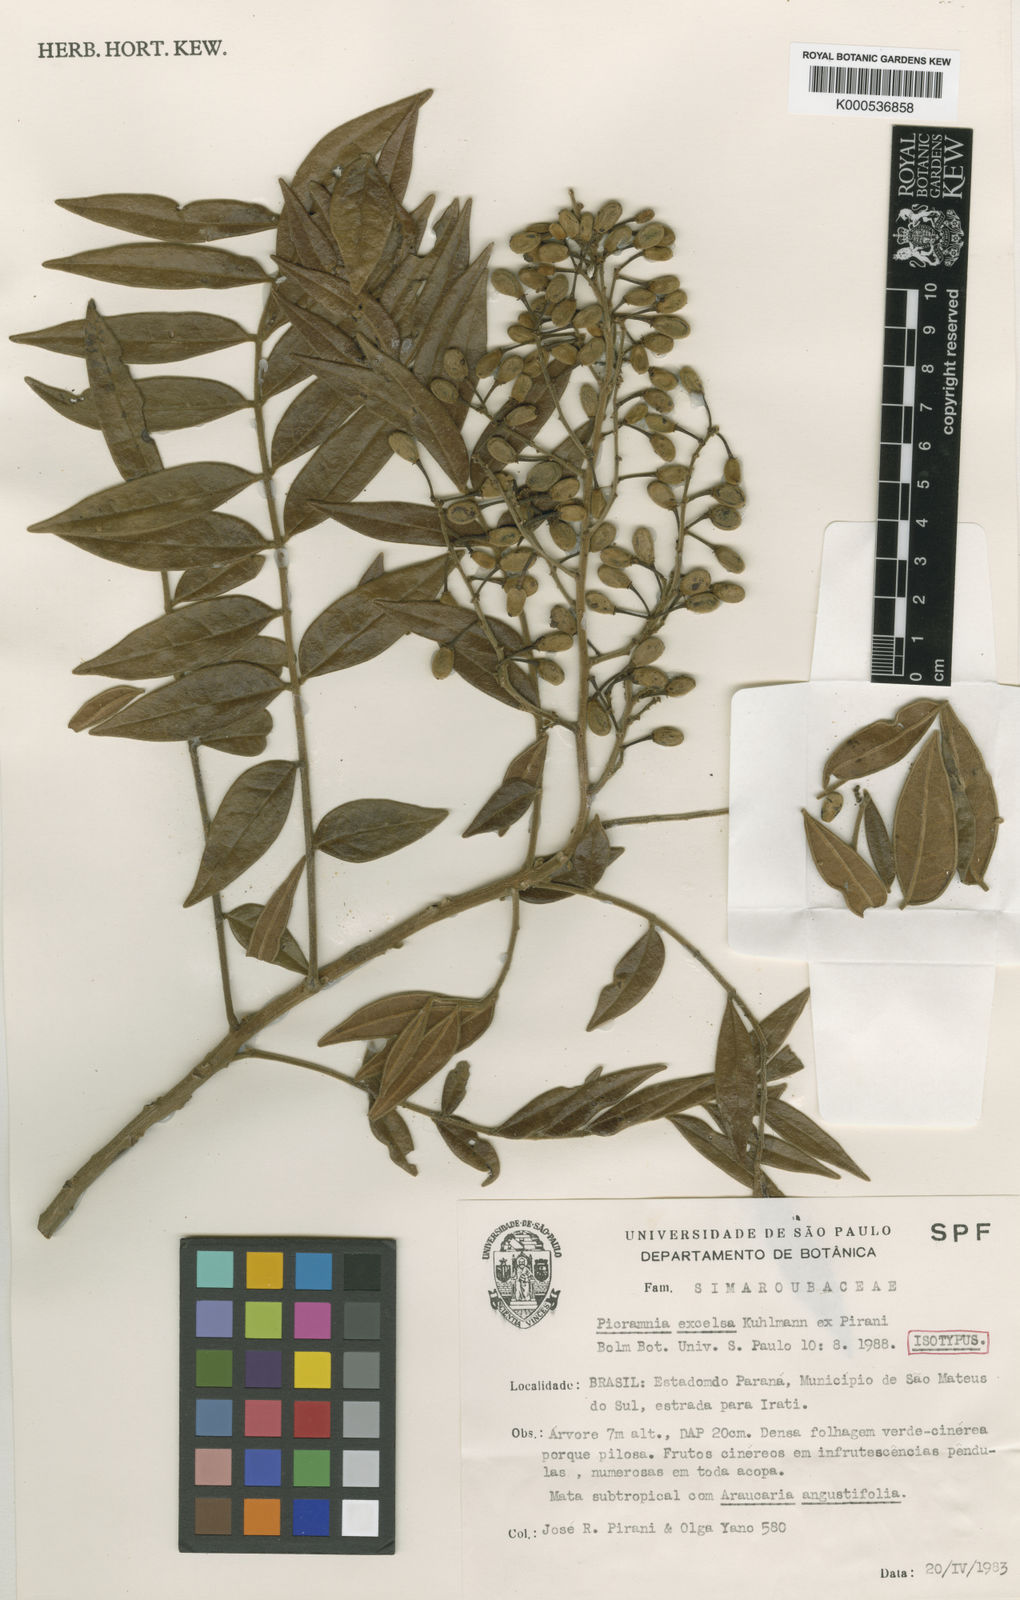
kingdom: Plantae
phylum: Tracheophyta
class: Magnoliopsida
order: Picramniales
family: Picramniaceae
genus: Picramnia
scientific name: Picramnia excelsa
